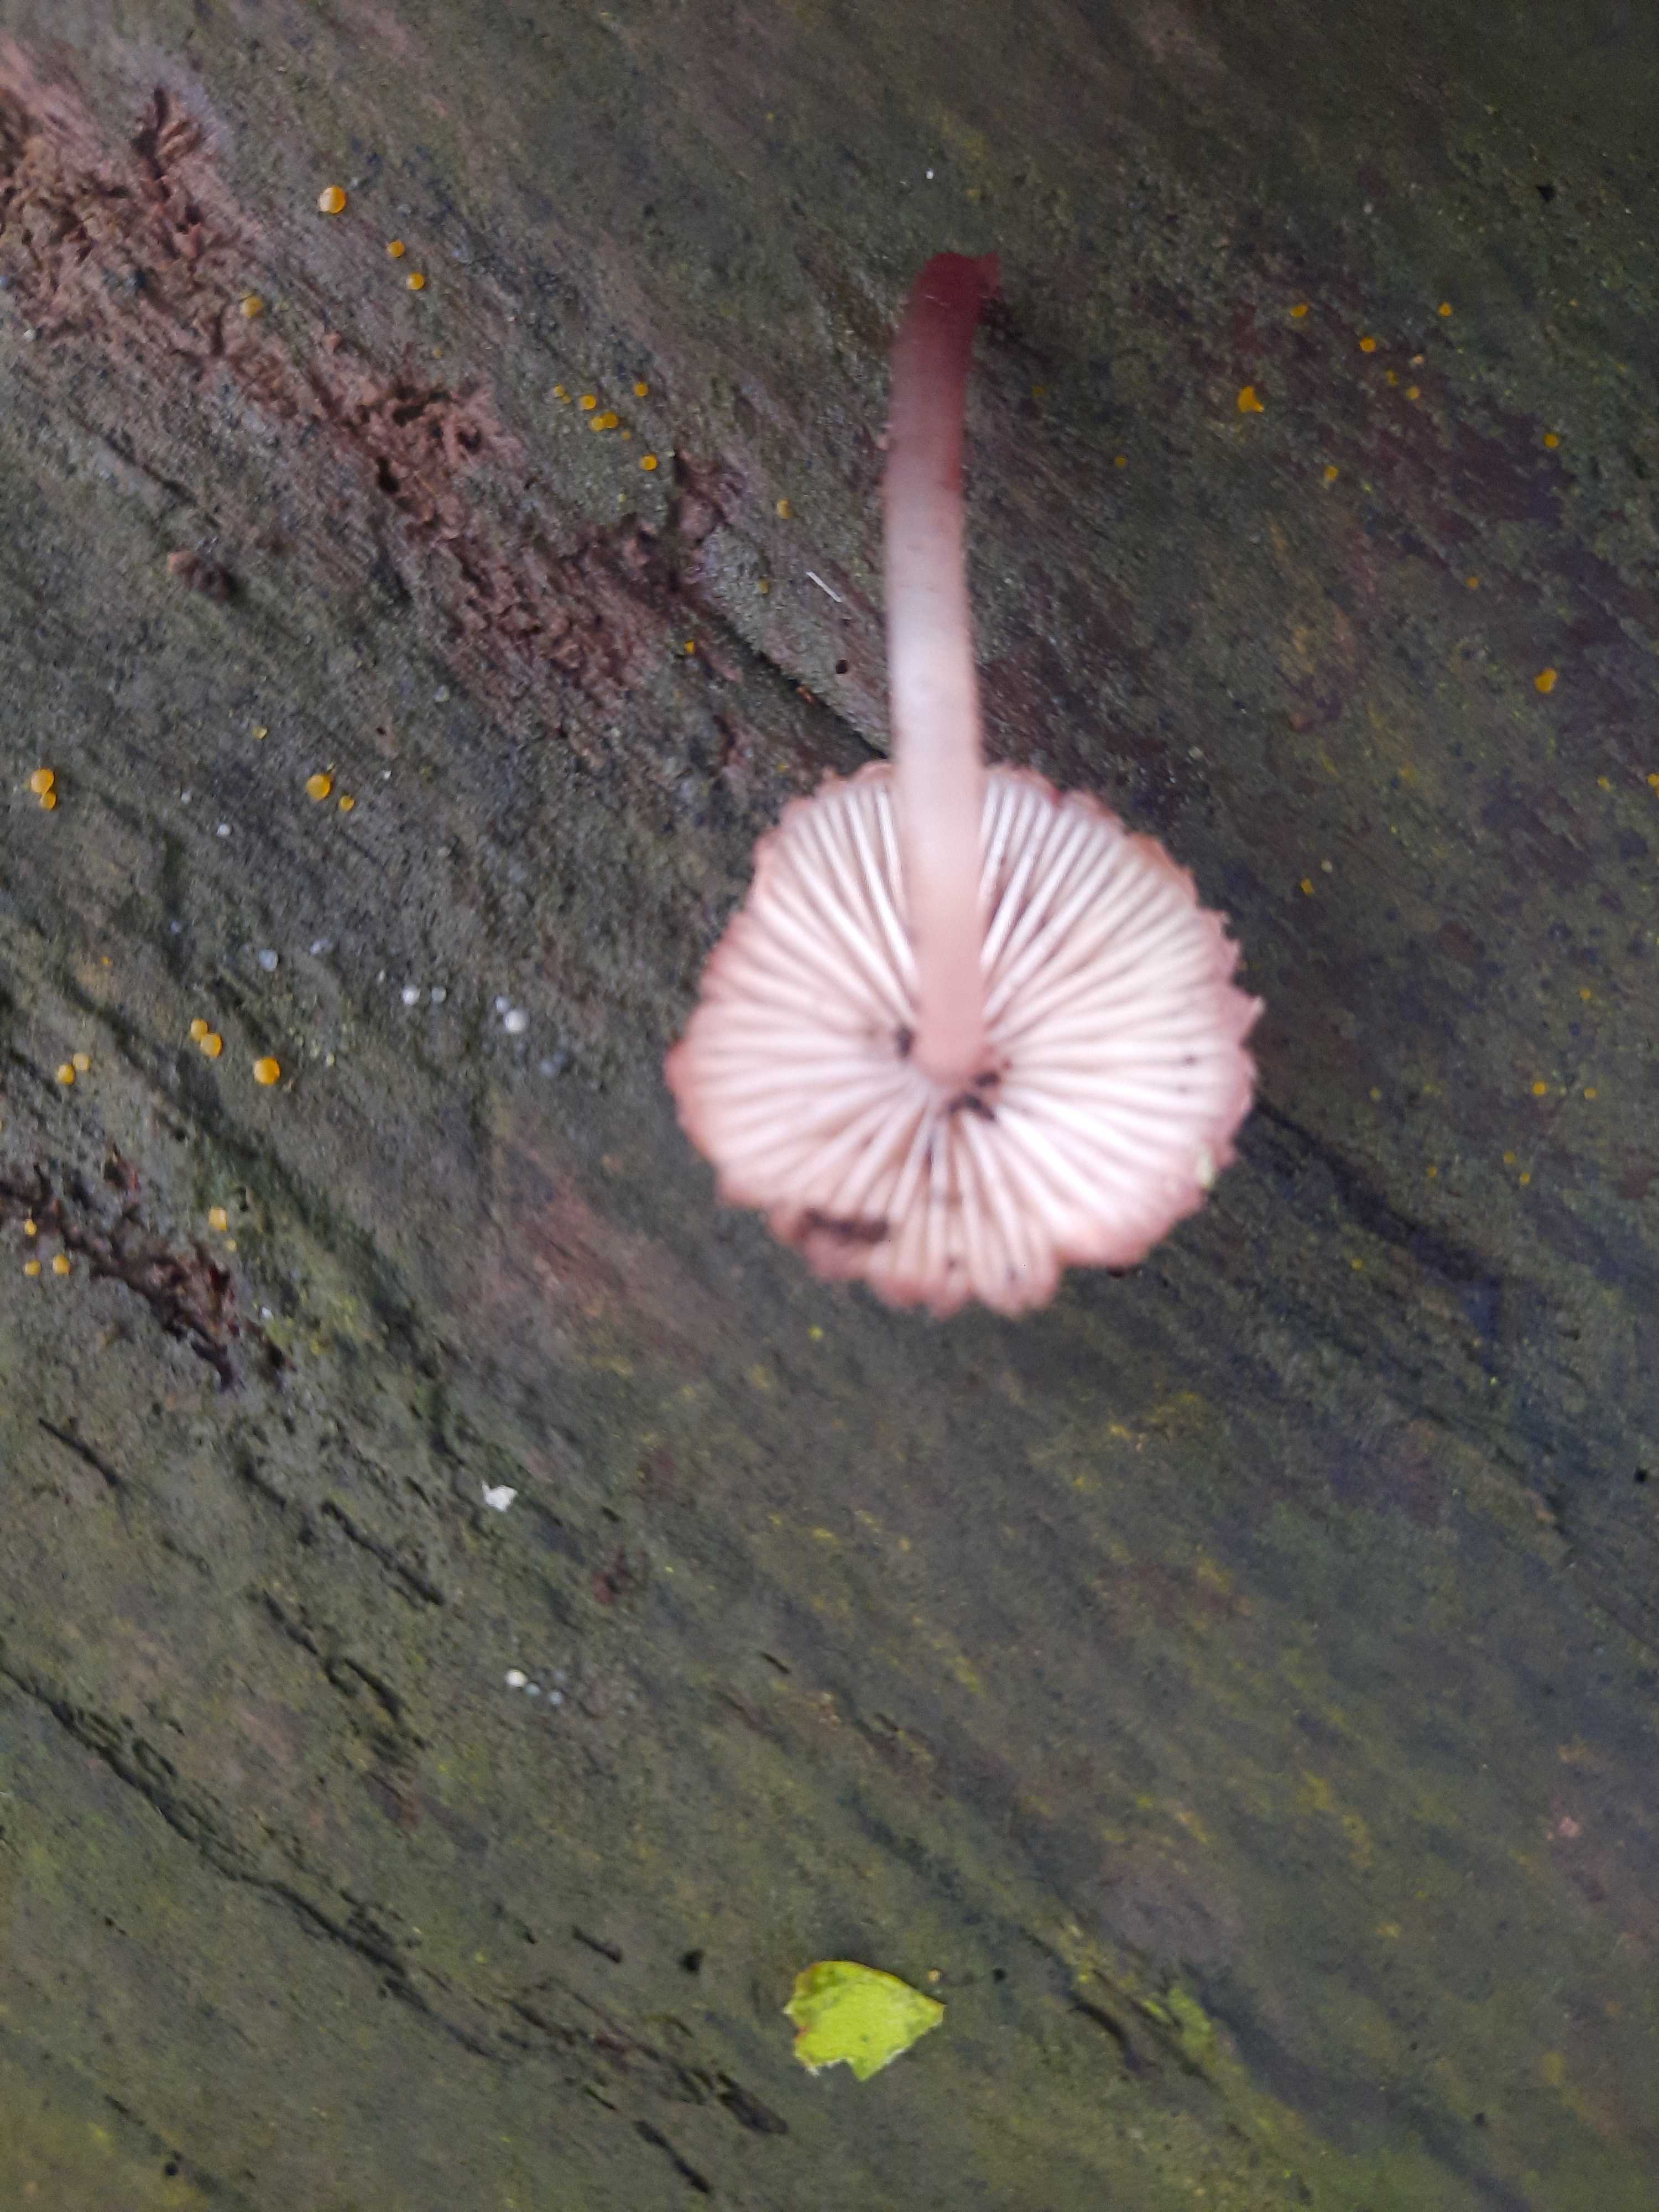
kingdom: Fungi
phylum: Basidiomycota
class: Agaricomycetes
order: Agaricales
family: Mycenaceae
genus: Mycena
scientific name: Mycena haematopus
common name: blødende huesvamp
